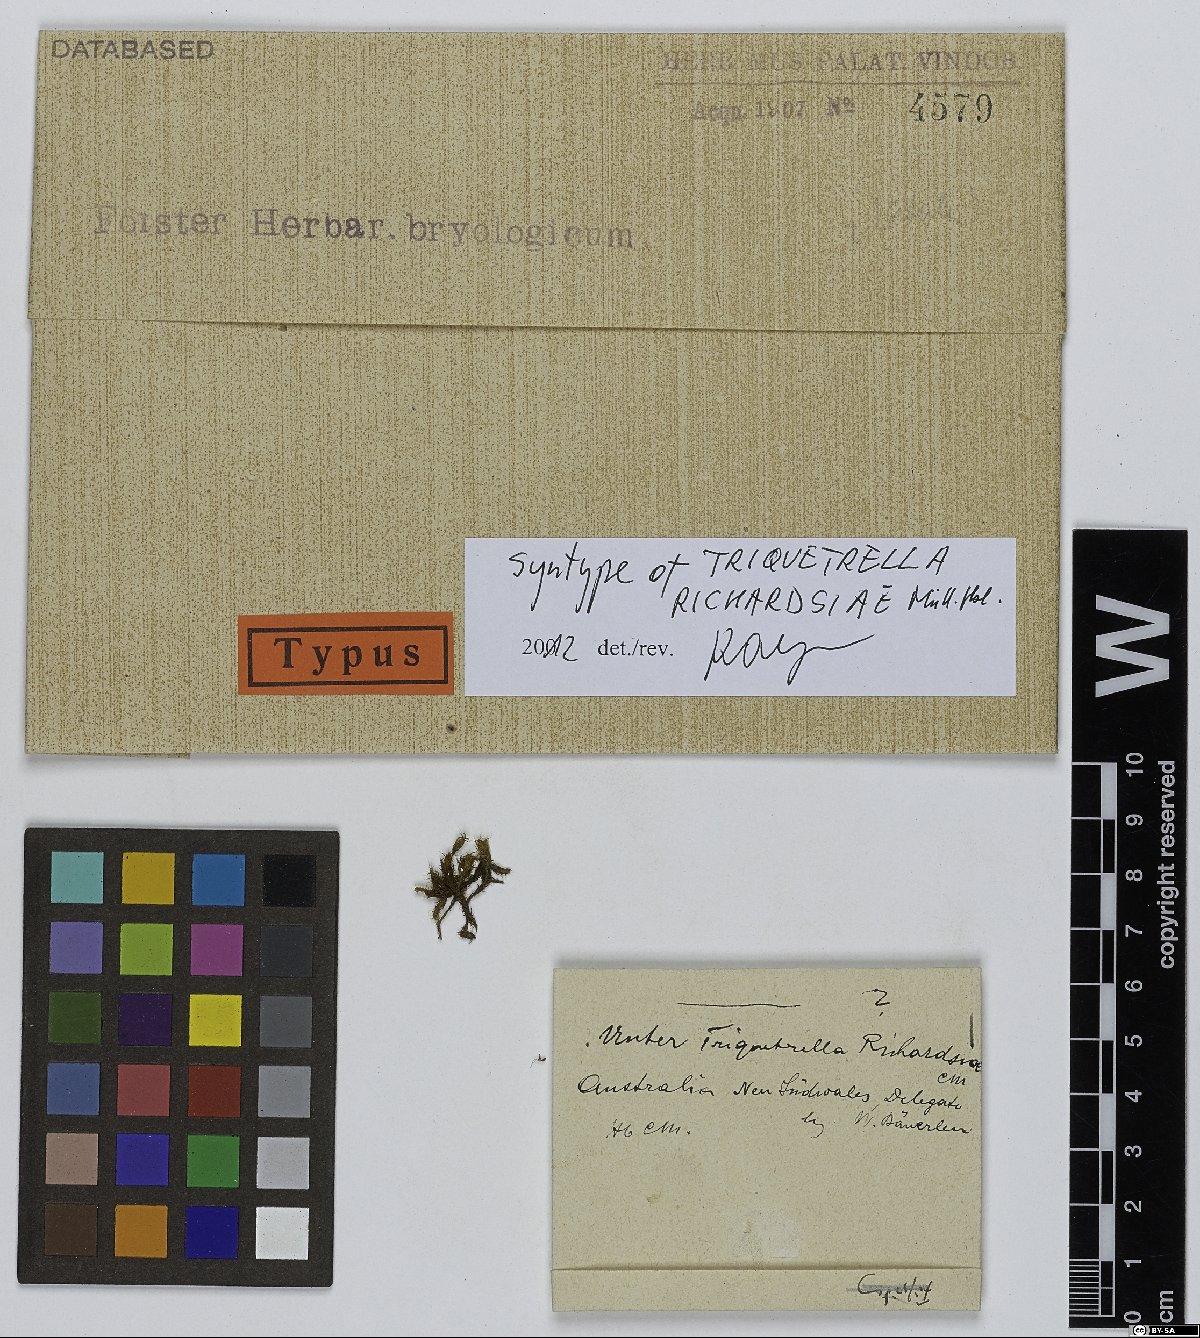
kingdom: Plantae
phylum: Bryophyta
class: Bryopsida
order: Pottiales
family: Pottiaceae
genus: Triquetrella
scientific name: Triquetrella papillata
